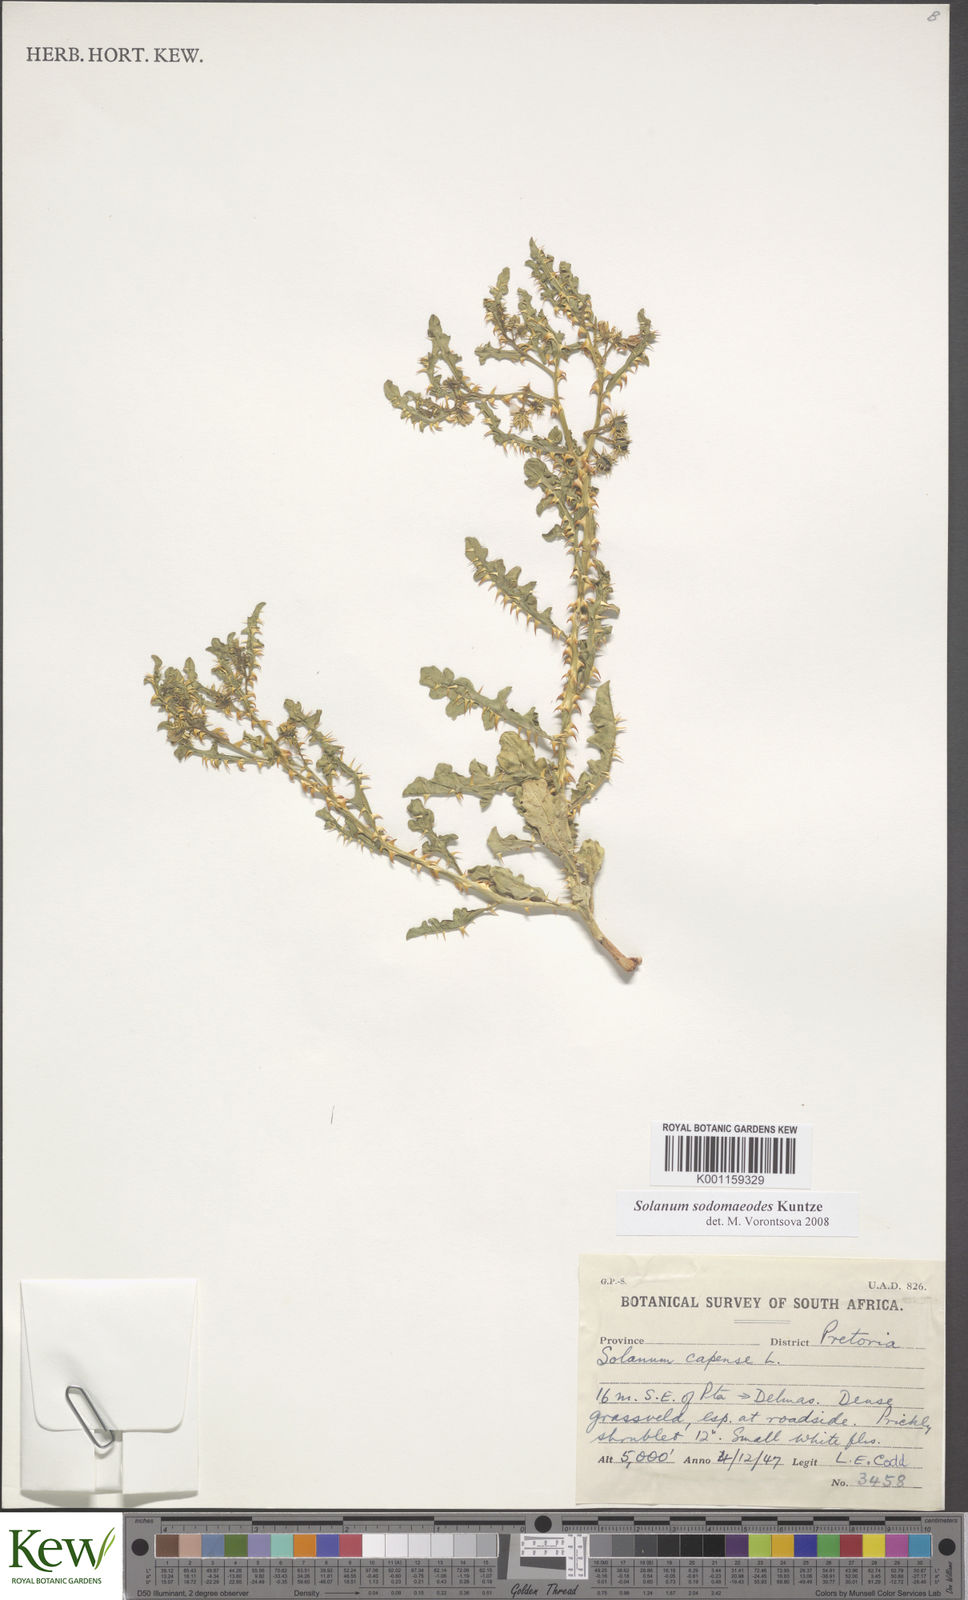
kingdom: Plantae
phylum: Tracheophyta
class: Magnoliopsida
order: Solanales
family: Solanaceae
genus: Solanum
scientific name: Solanum linnaeanum
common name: Nightshade
